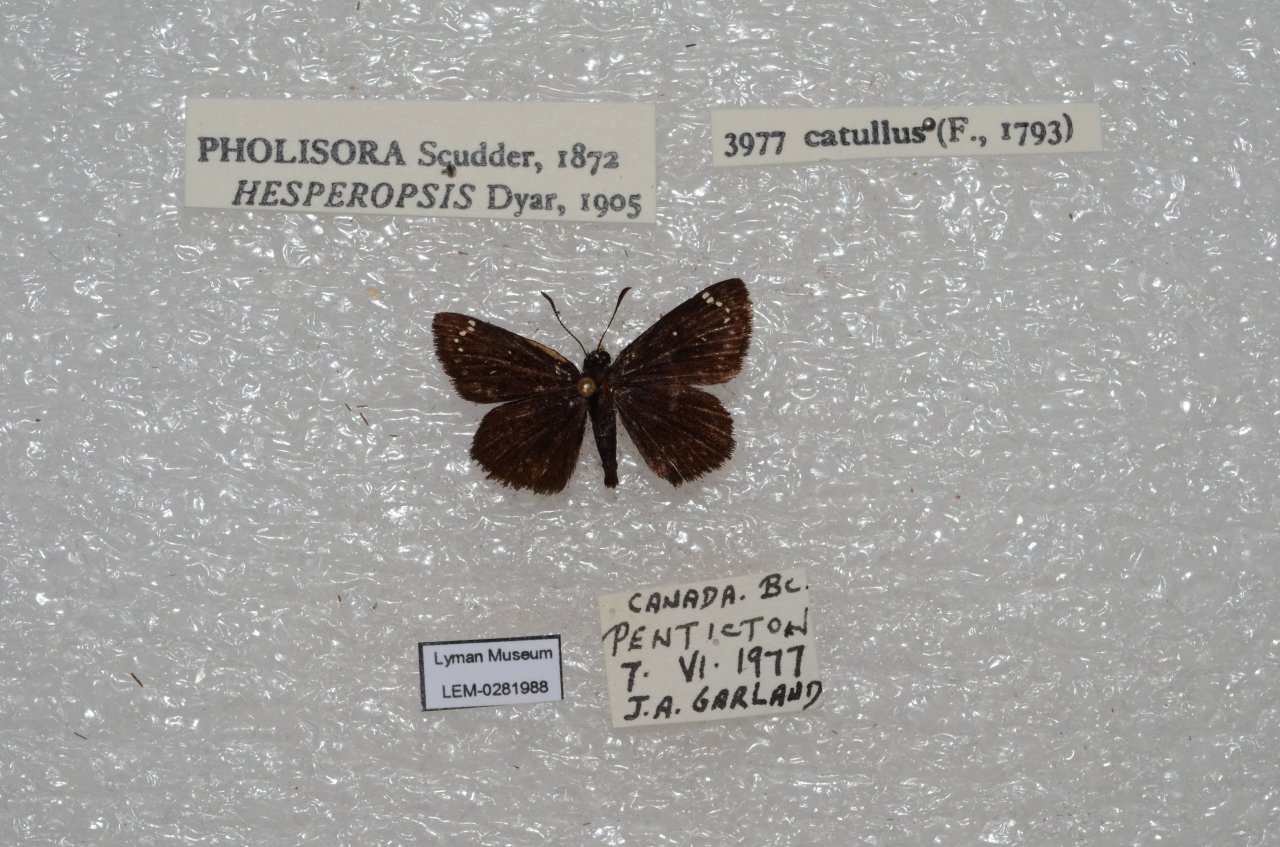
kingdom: Animalia
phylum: Arthropoda
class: Insecta
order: Lepidoptera
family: Hesperiidae
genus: Pholisora
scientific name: Pholisora catullus
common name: Common Sootywing
